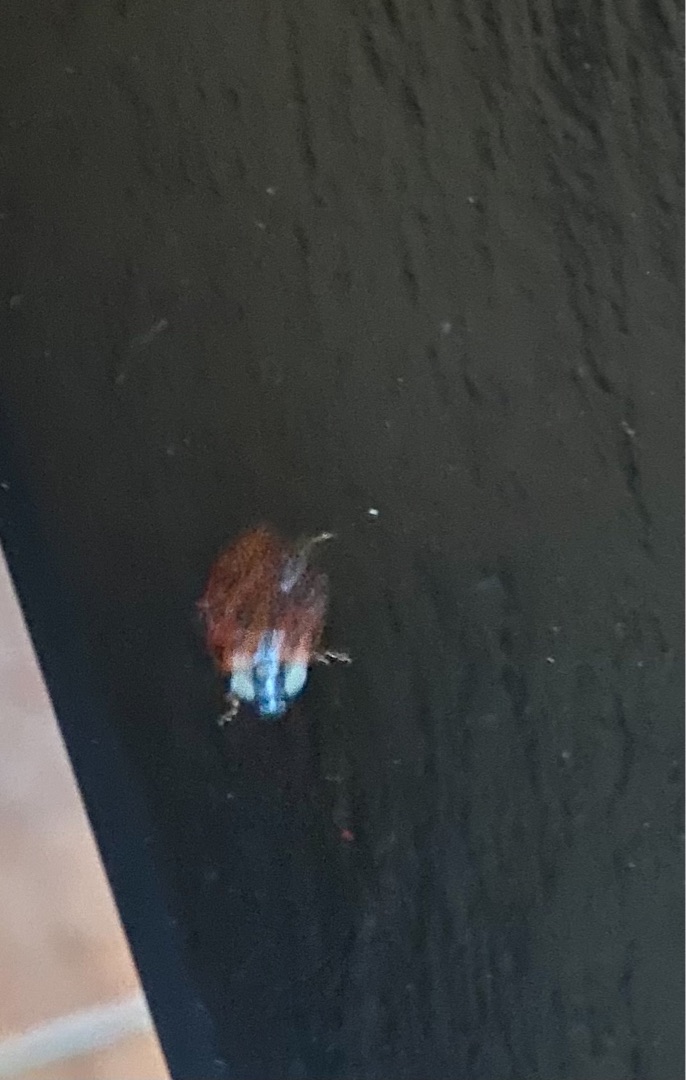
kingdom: Animalia
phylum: Arthropoda
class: Insecta
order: Coleoptera
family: Coccinellidae
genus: Harmonia
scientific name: Harmonia axyridis
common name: Harlekinmariehøne
